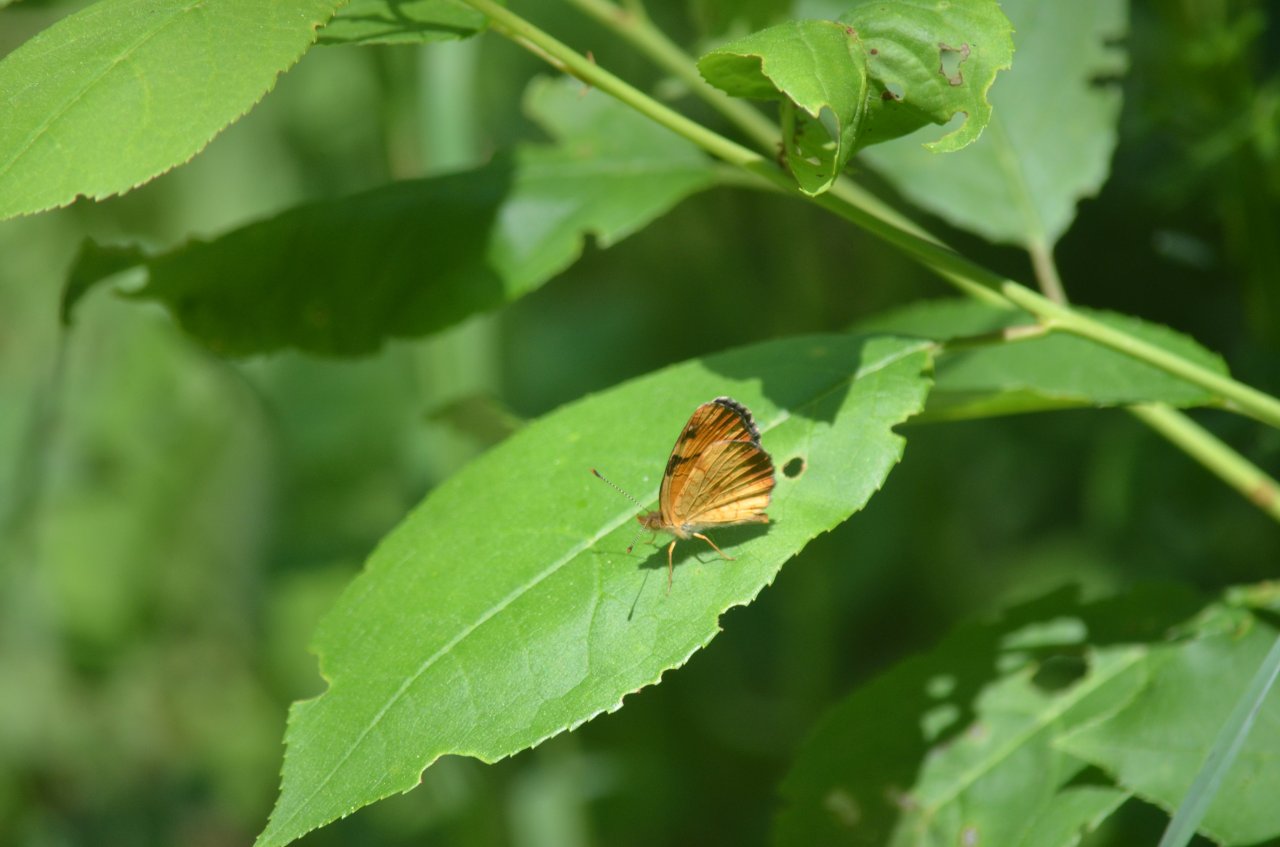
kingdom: Animalia
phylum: Arthropoda
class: Insecta
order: Lepidoptera
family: Nymphalidae
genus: Phyciodes
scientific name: Phyciodes tharos
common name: Northern Crescent
